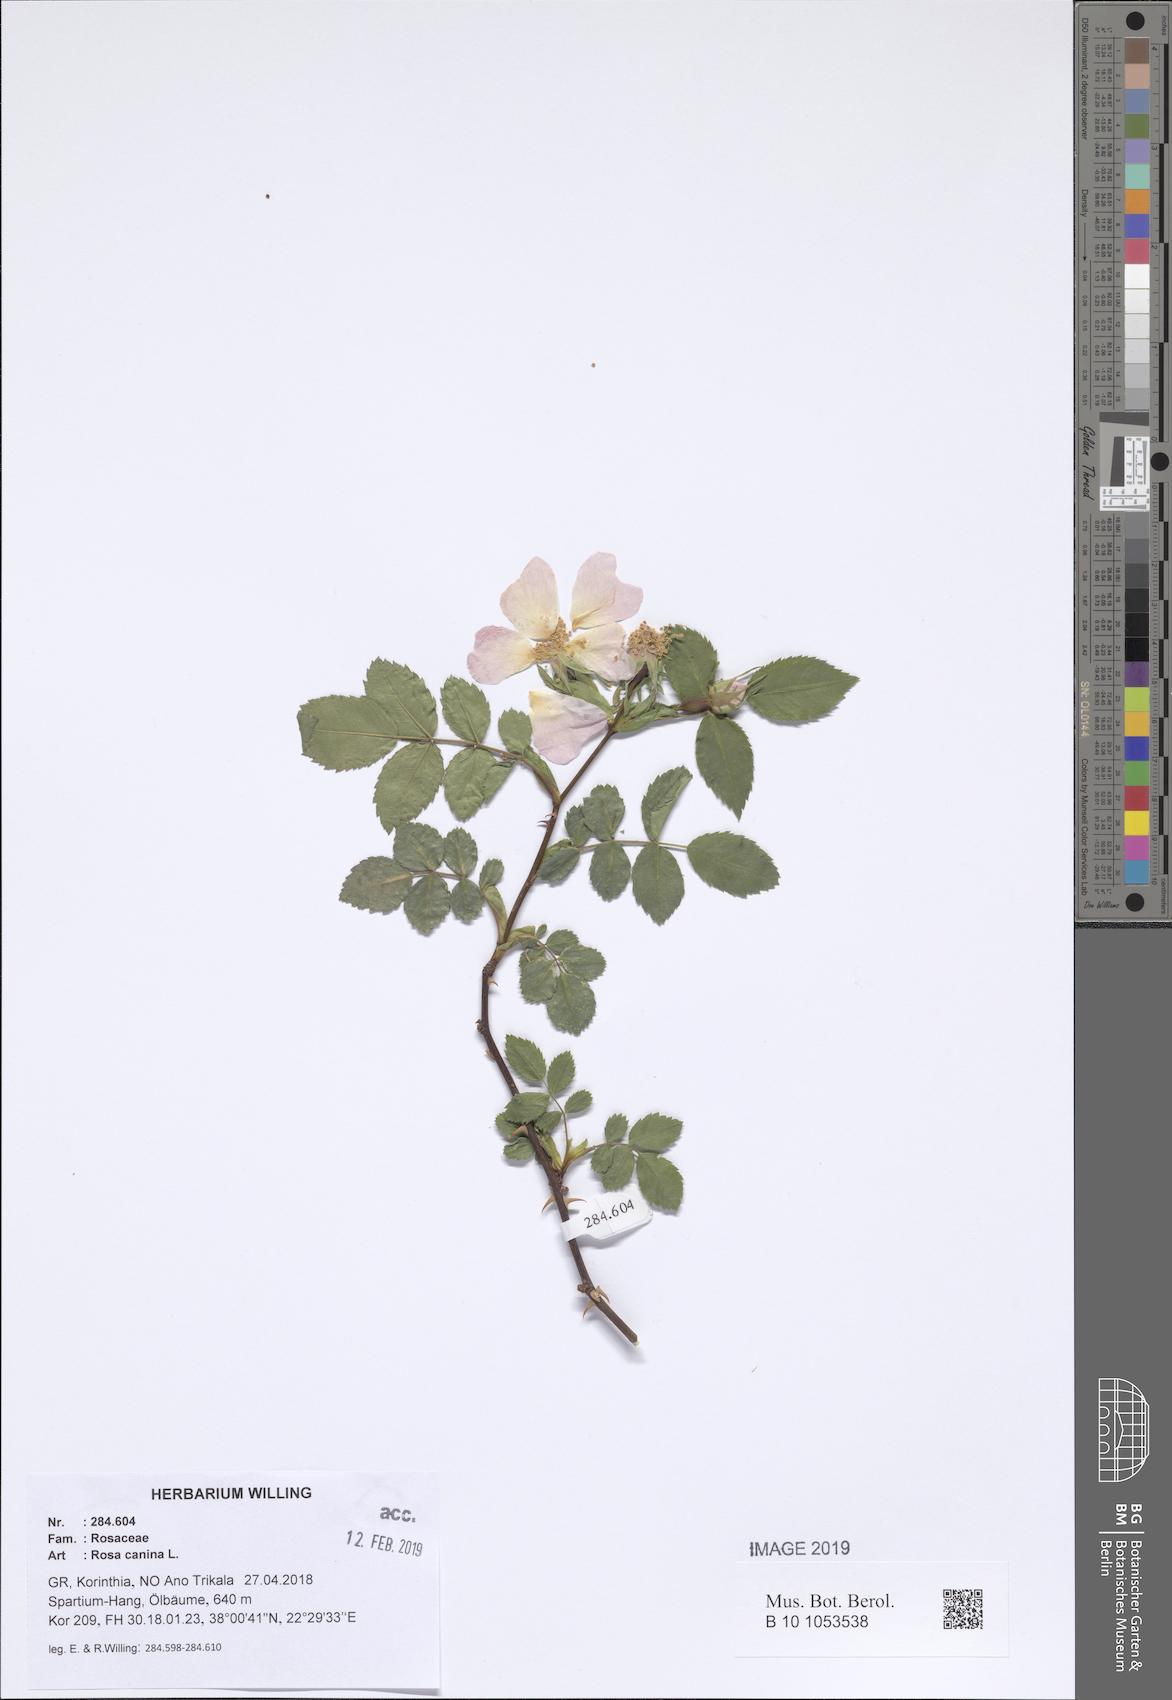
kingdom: Plantae
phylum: Tracheophyta
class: Magnoliopsida
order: Rosales
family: Rosaceae
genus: Rosa
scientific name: Rosa canina
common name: Dog rose
